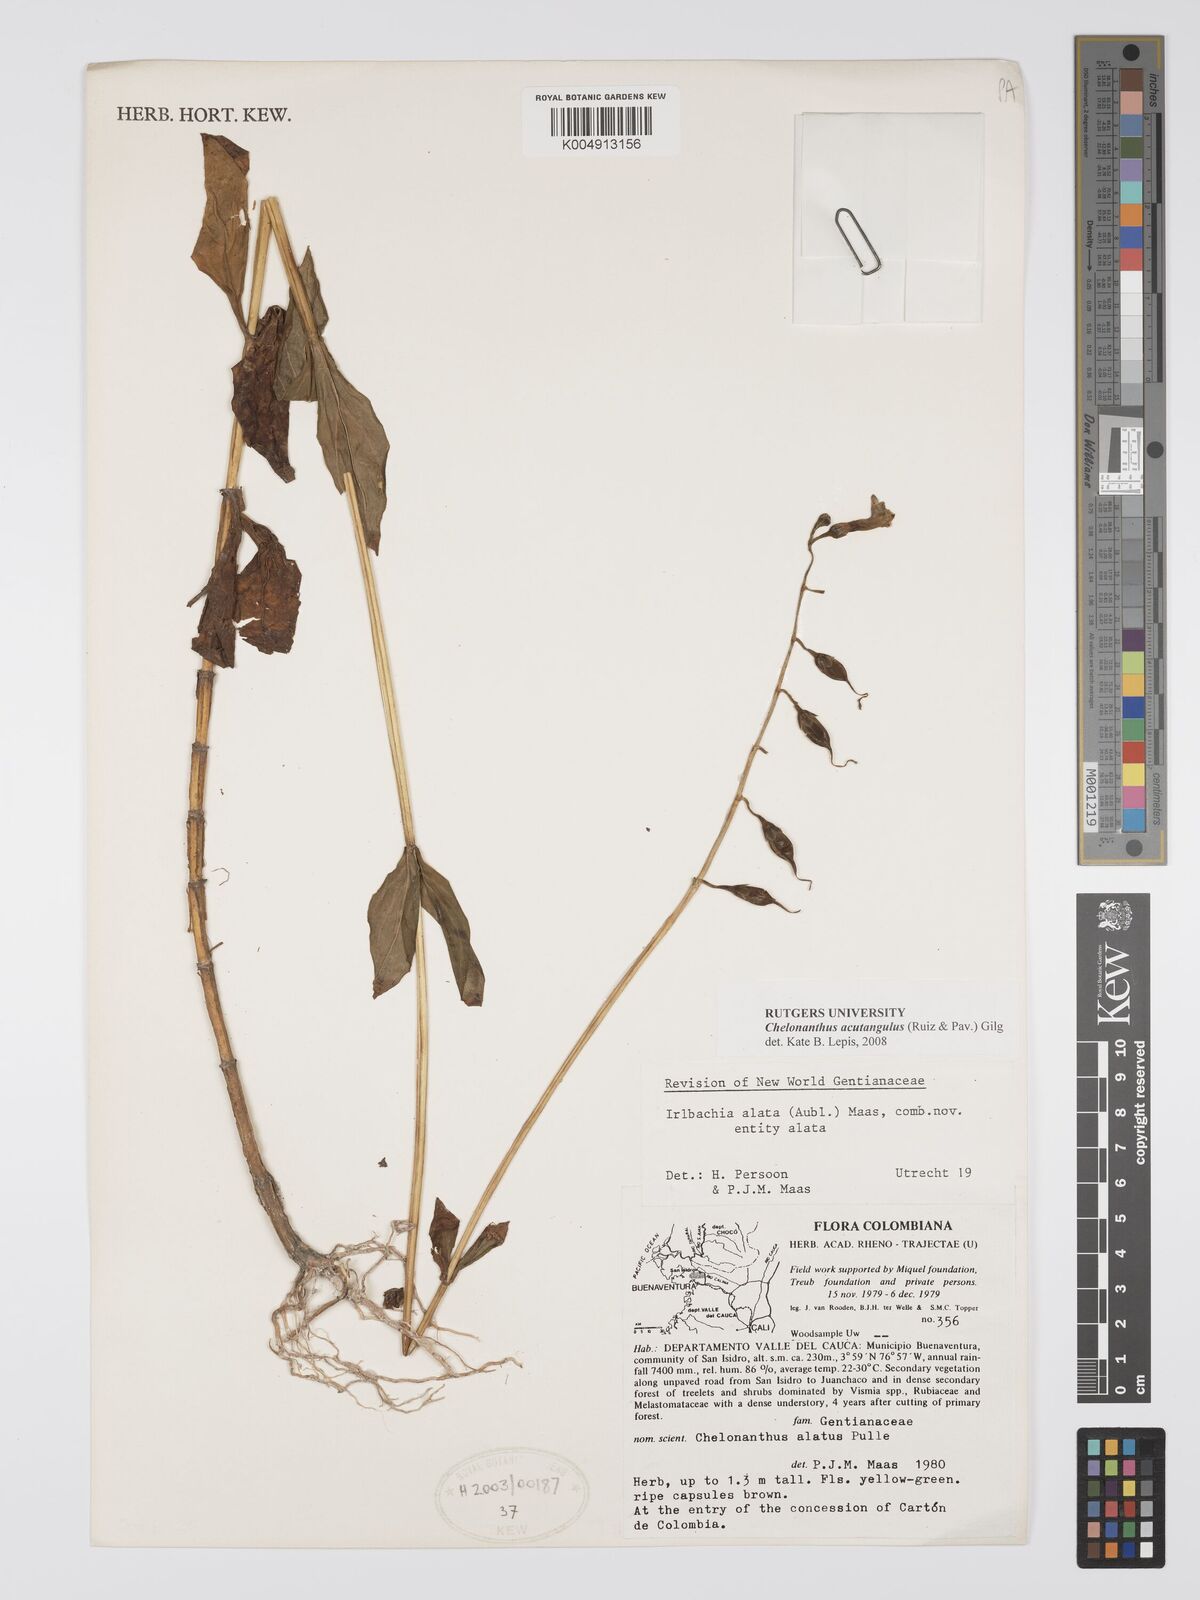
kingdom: Plantae
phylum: Tracheophyta
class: Magnoliopsida
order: Gentianales
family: Gentianaceae
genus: Chelonanthus
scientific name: Chelonanthus alatus
